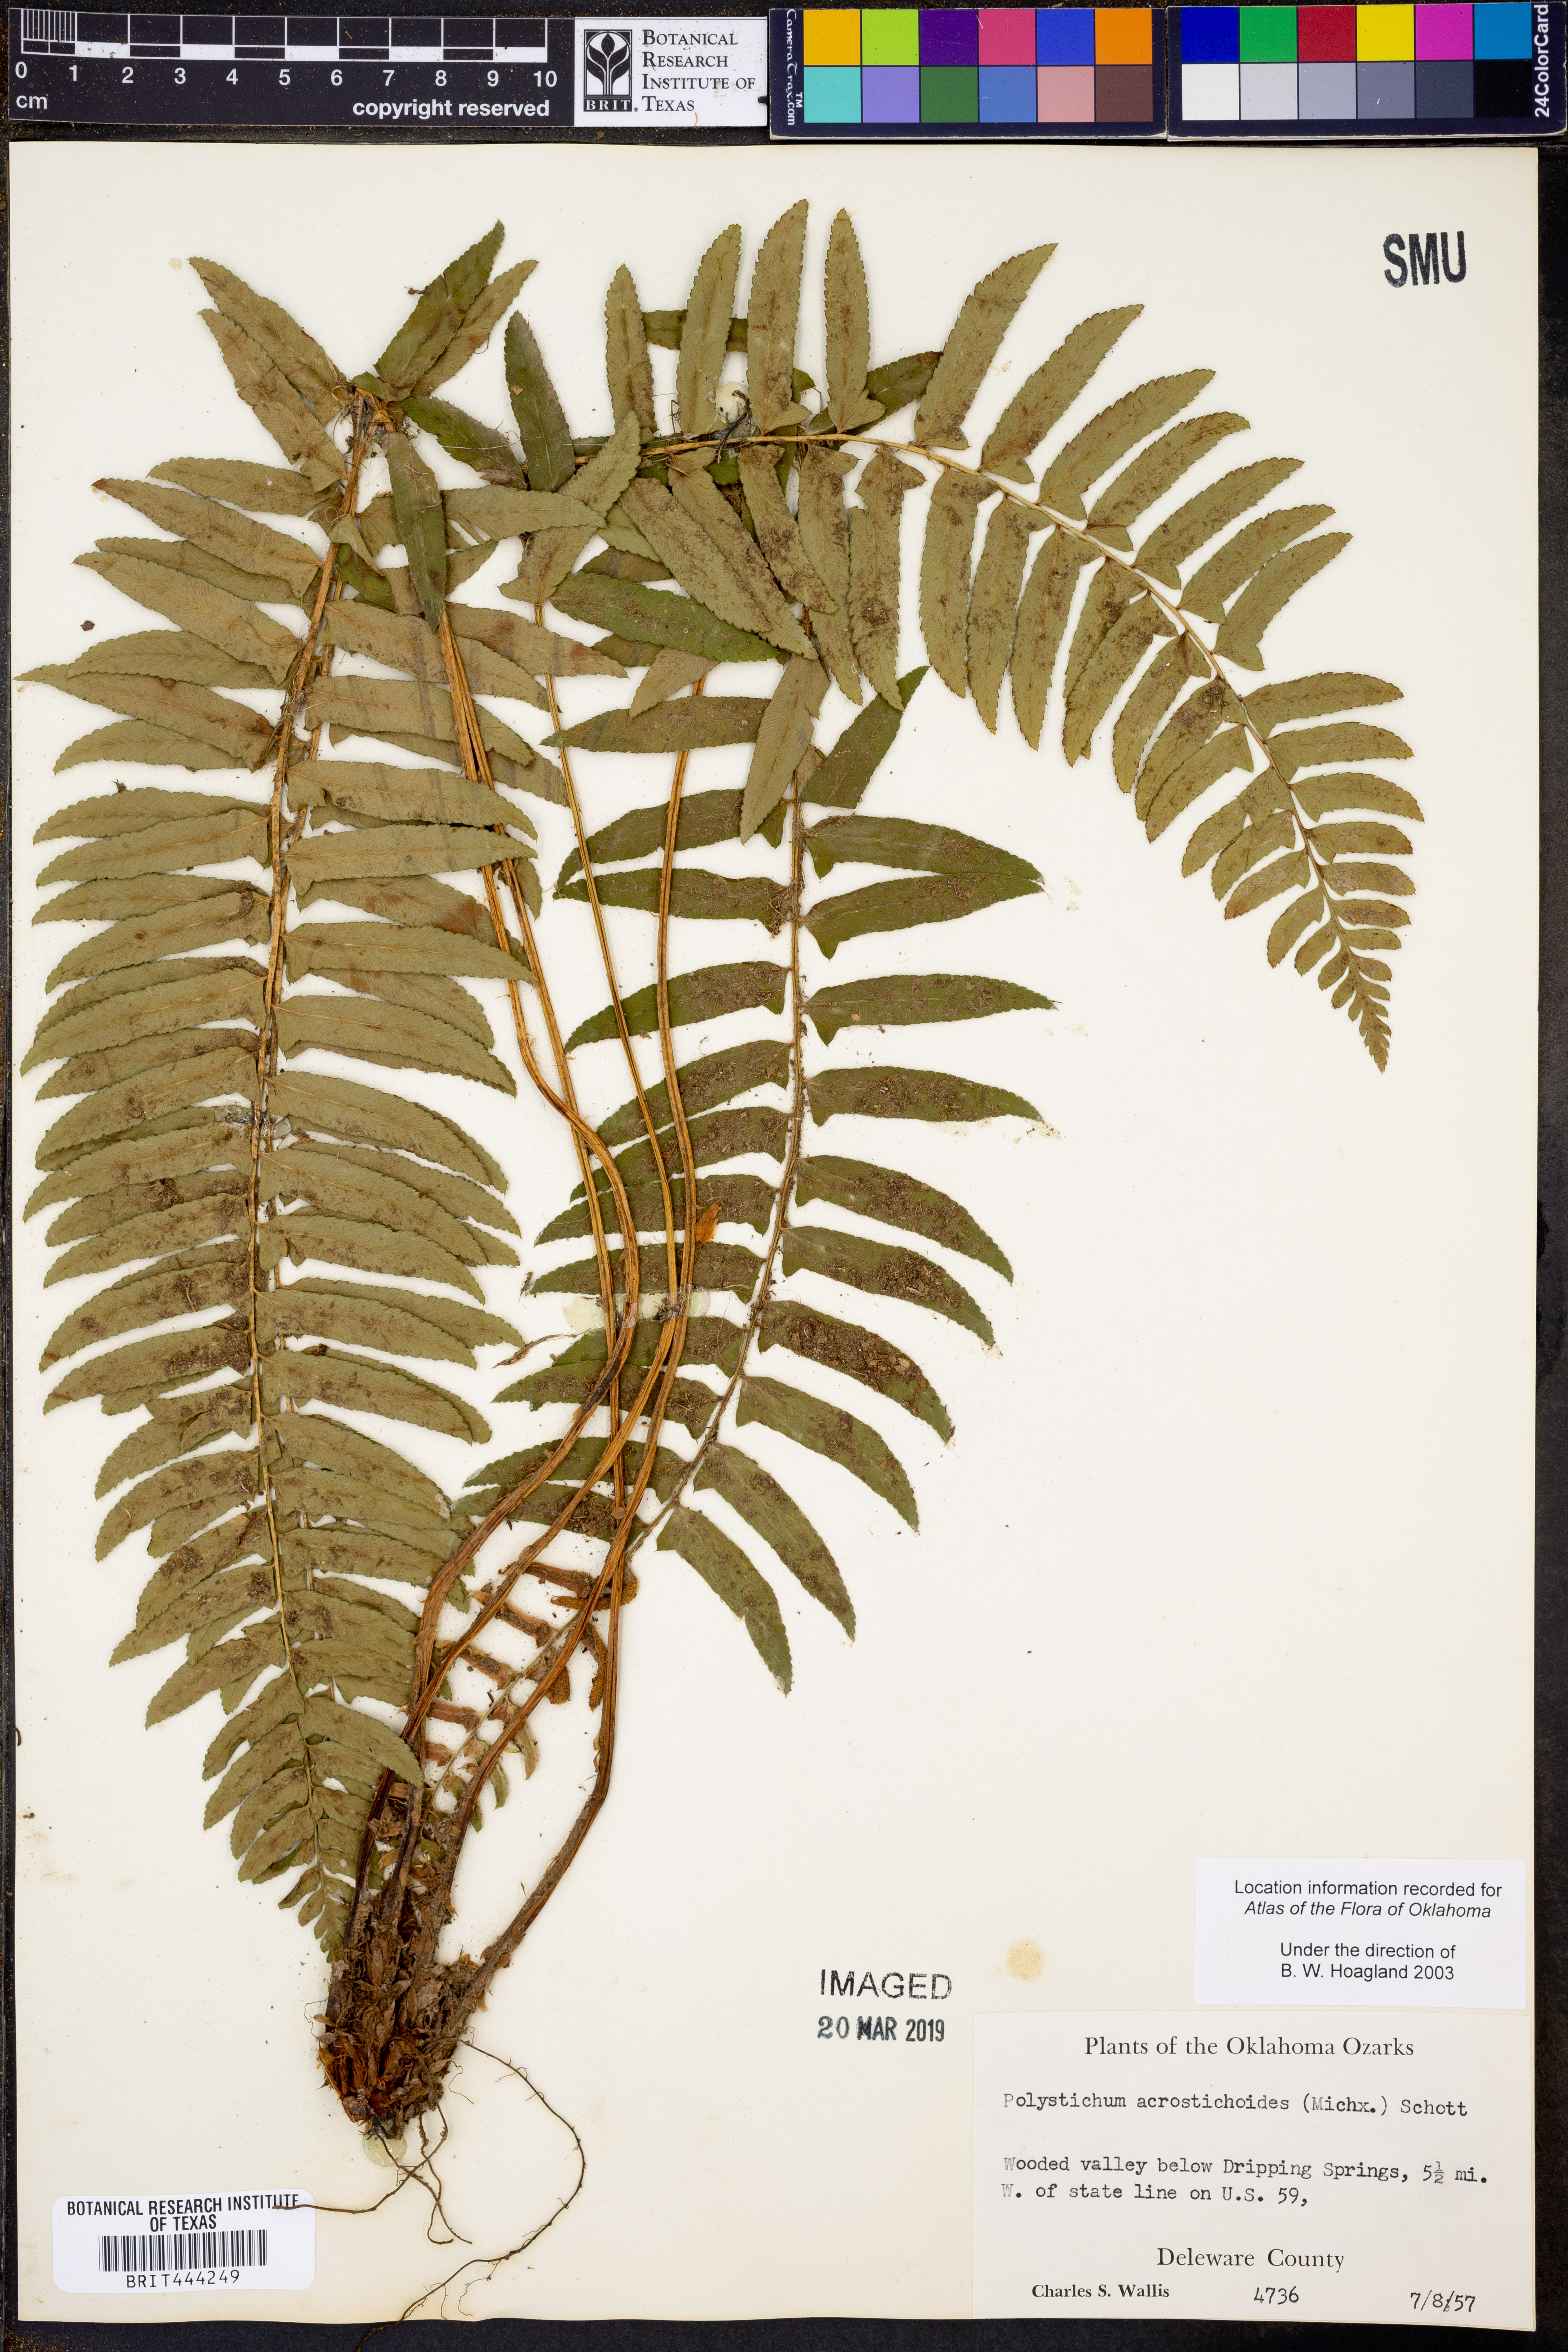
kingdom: Plantae
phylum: Tracheophyta
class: Polypodiopsida
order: Polypodiales
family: Dryopteridaceae
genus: Polystichum
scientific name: Polystichum acrostichoides
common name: Christmas fern
